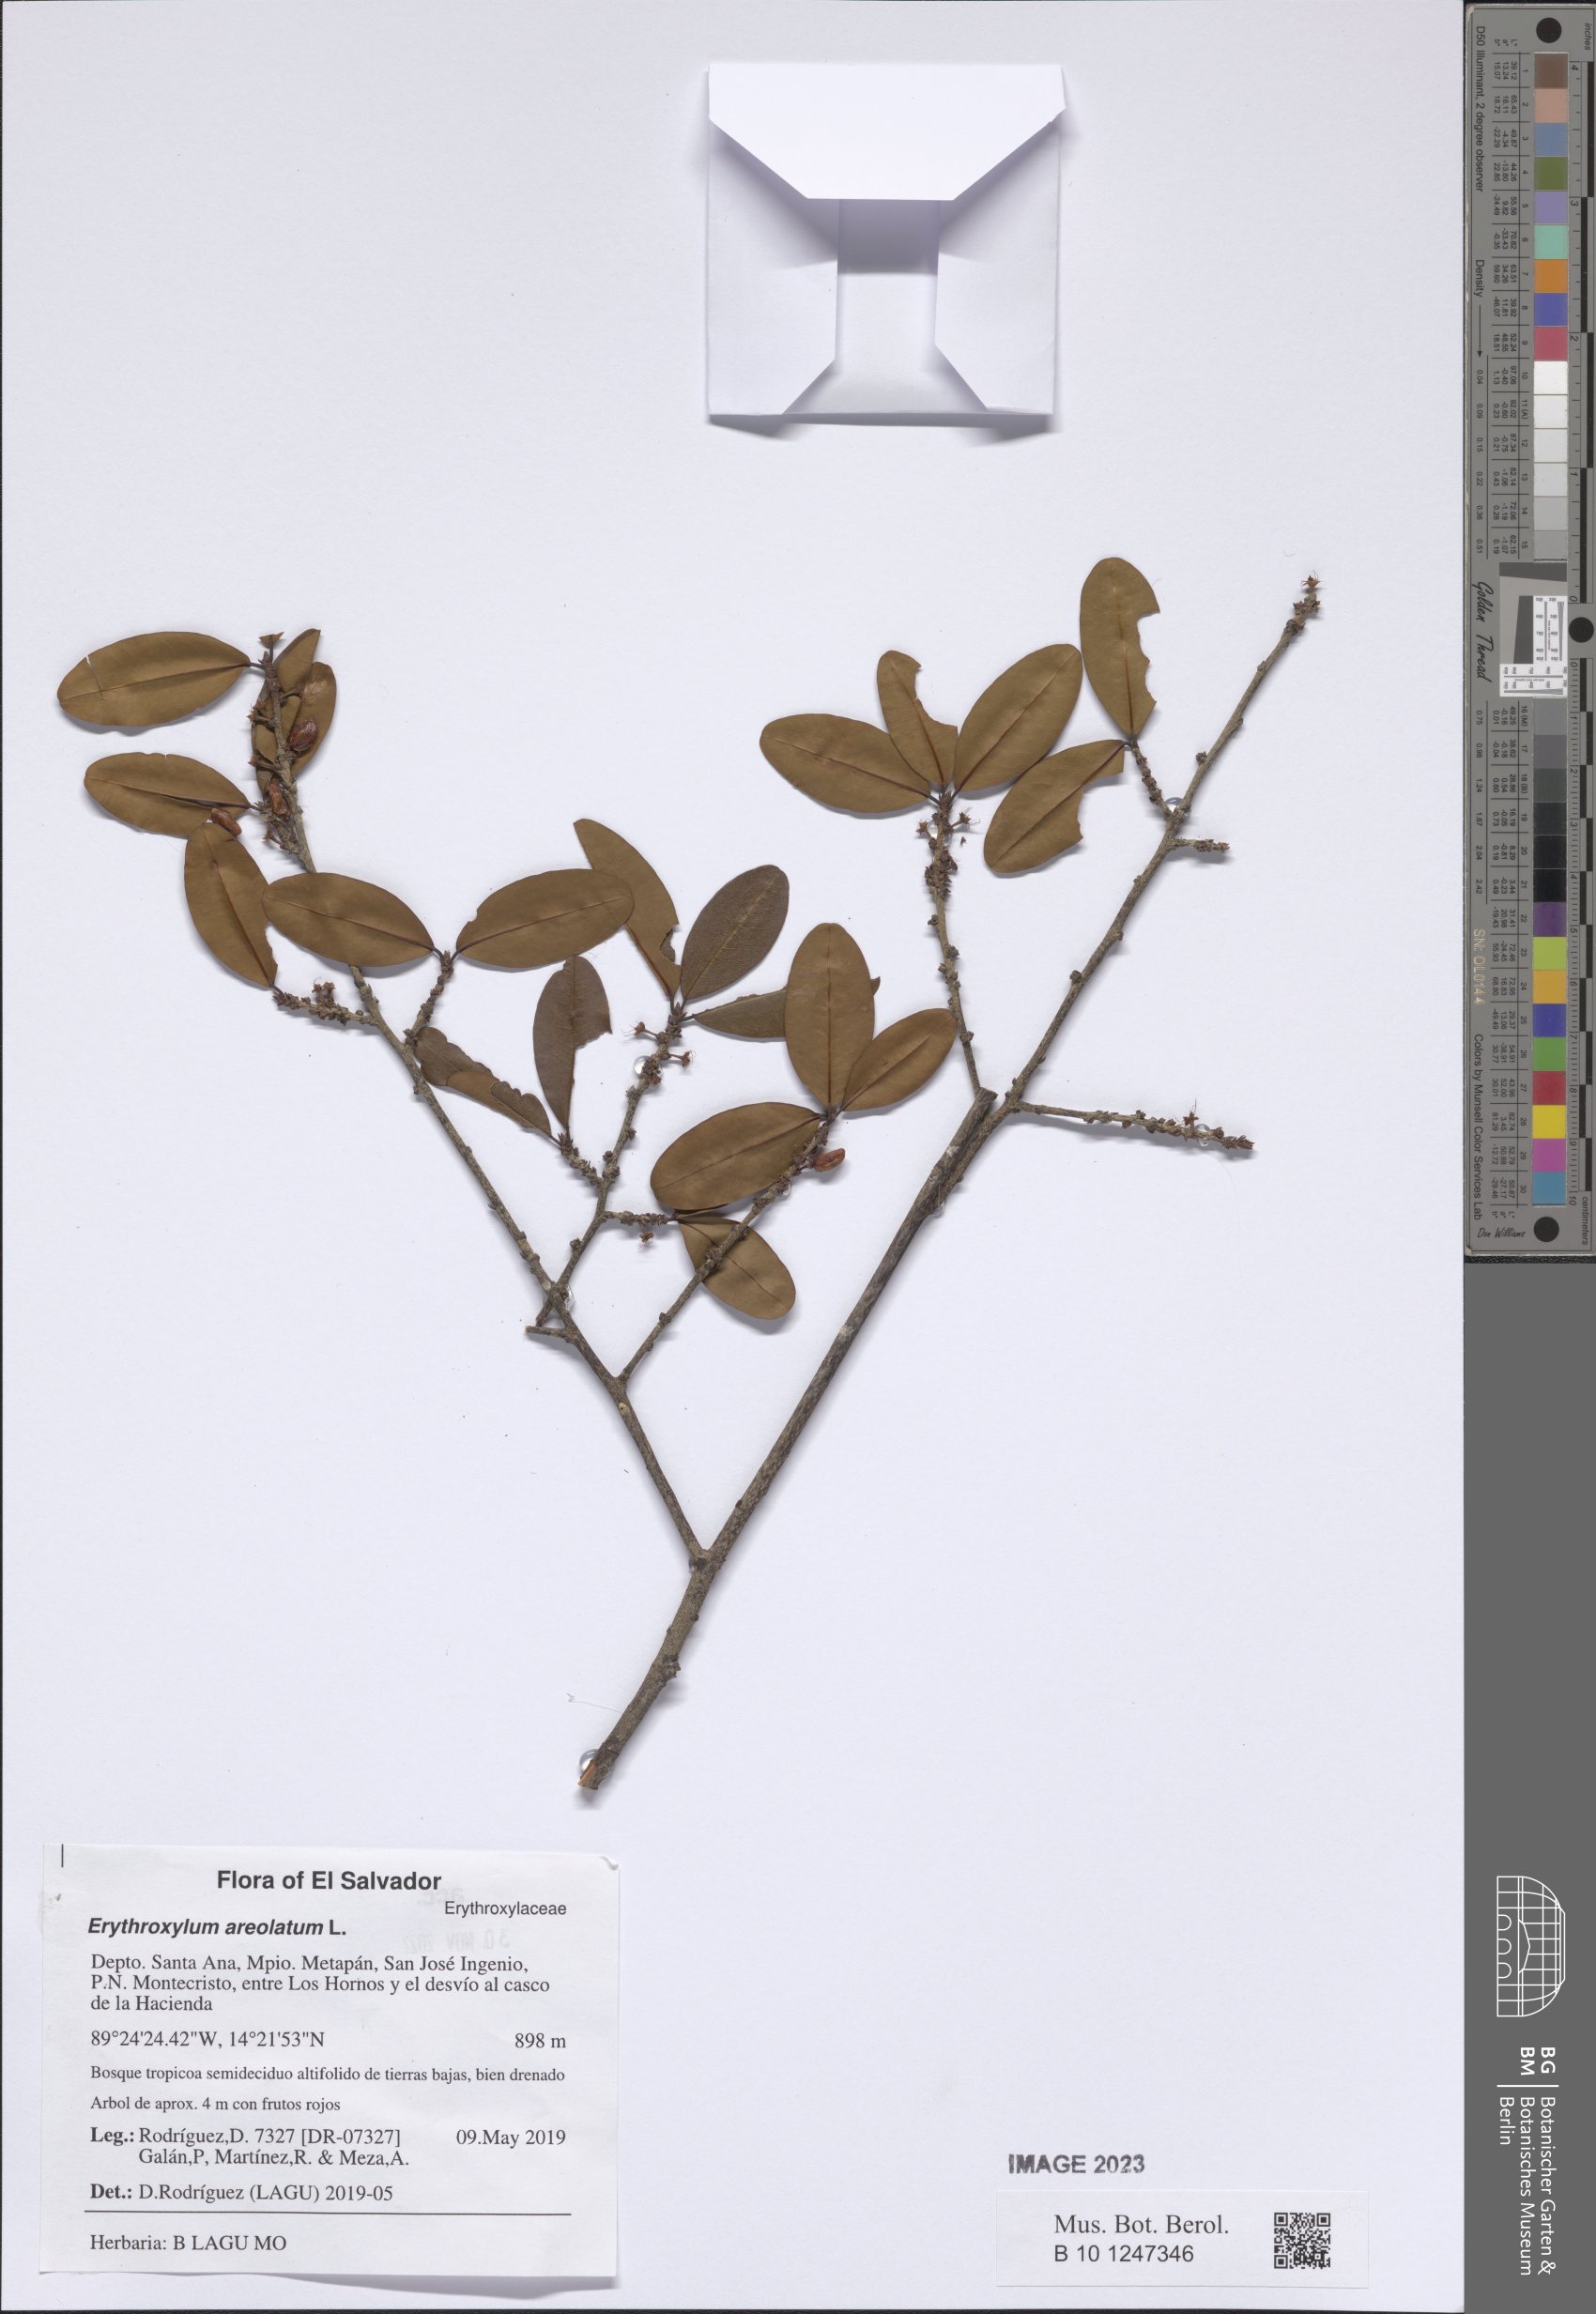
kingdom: Plantae
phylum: Tracheophyta
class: Magnoliopsida
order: Malpighiales
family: Erythroxylaceae
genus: Erythroxylum
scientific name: Erythroxylum areolatum
